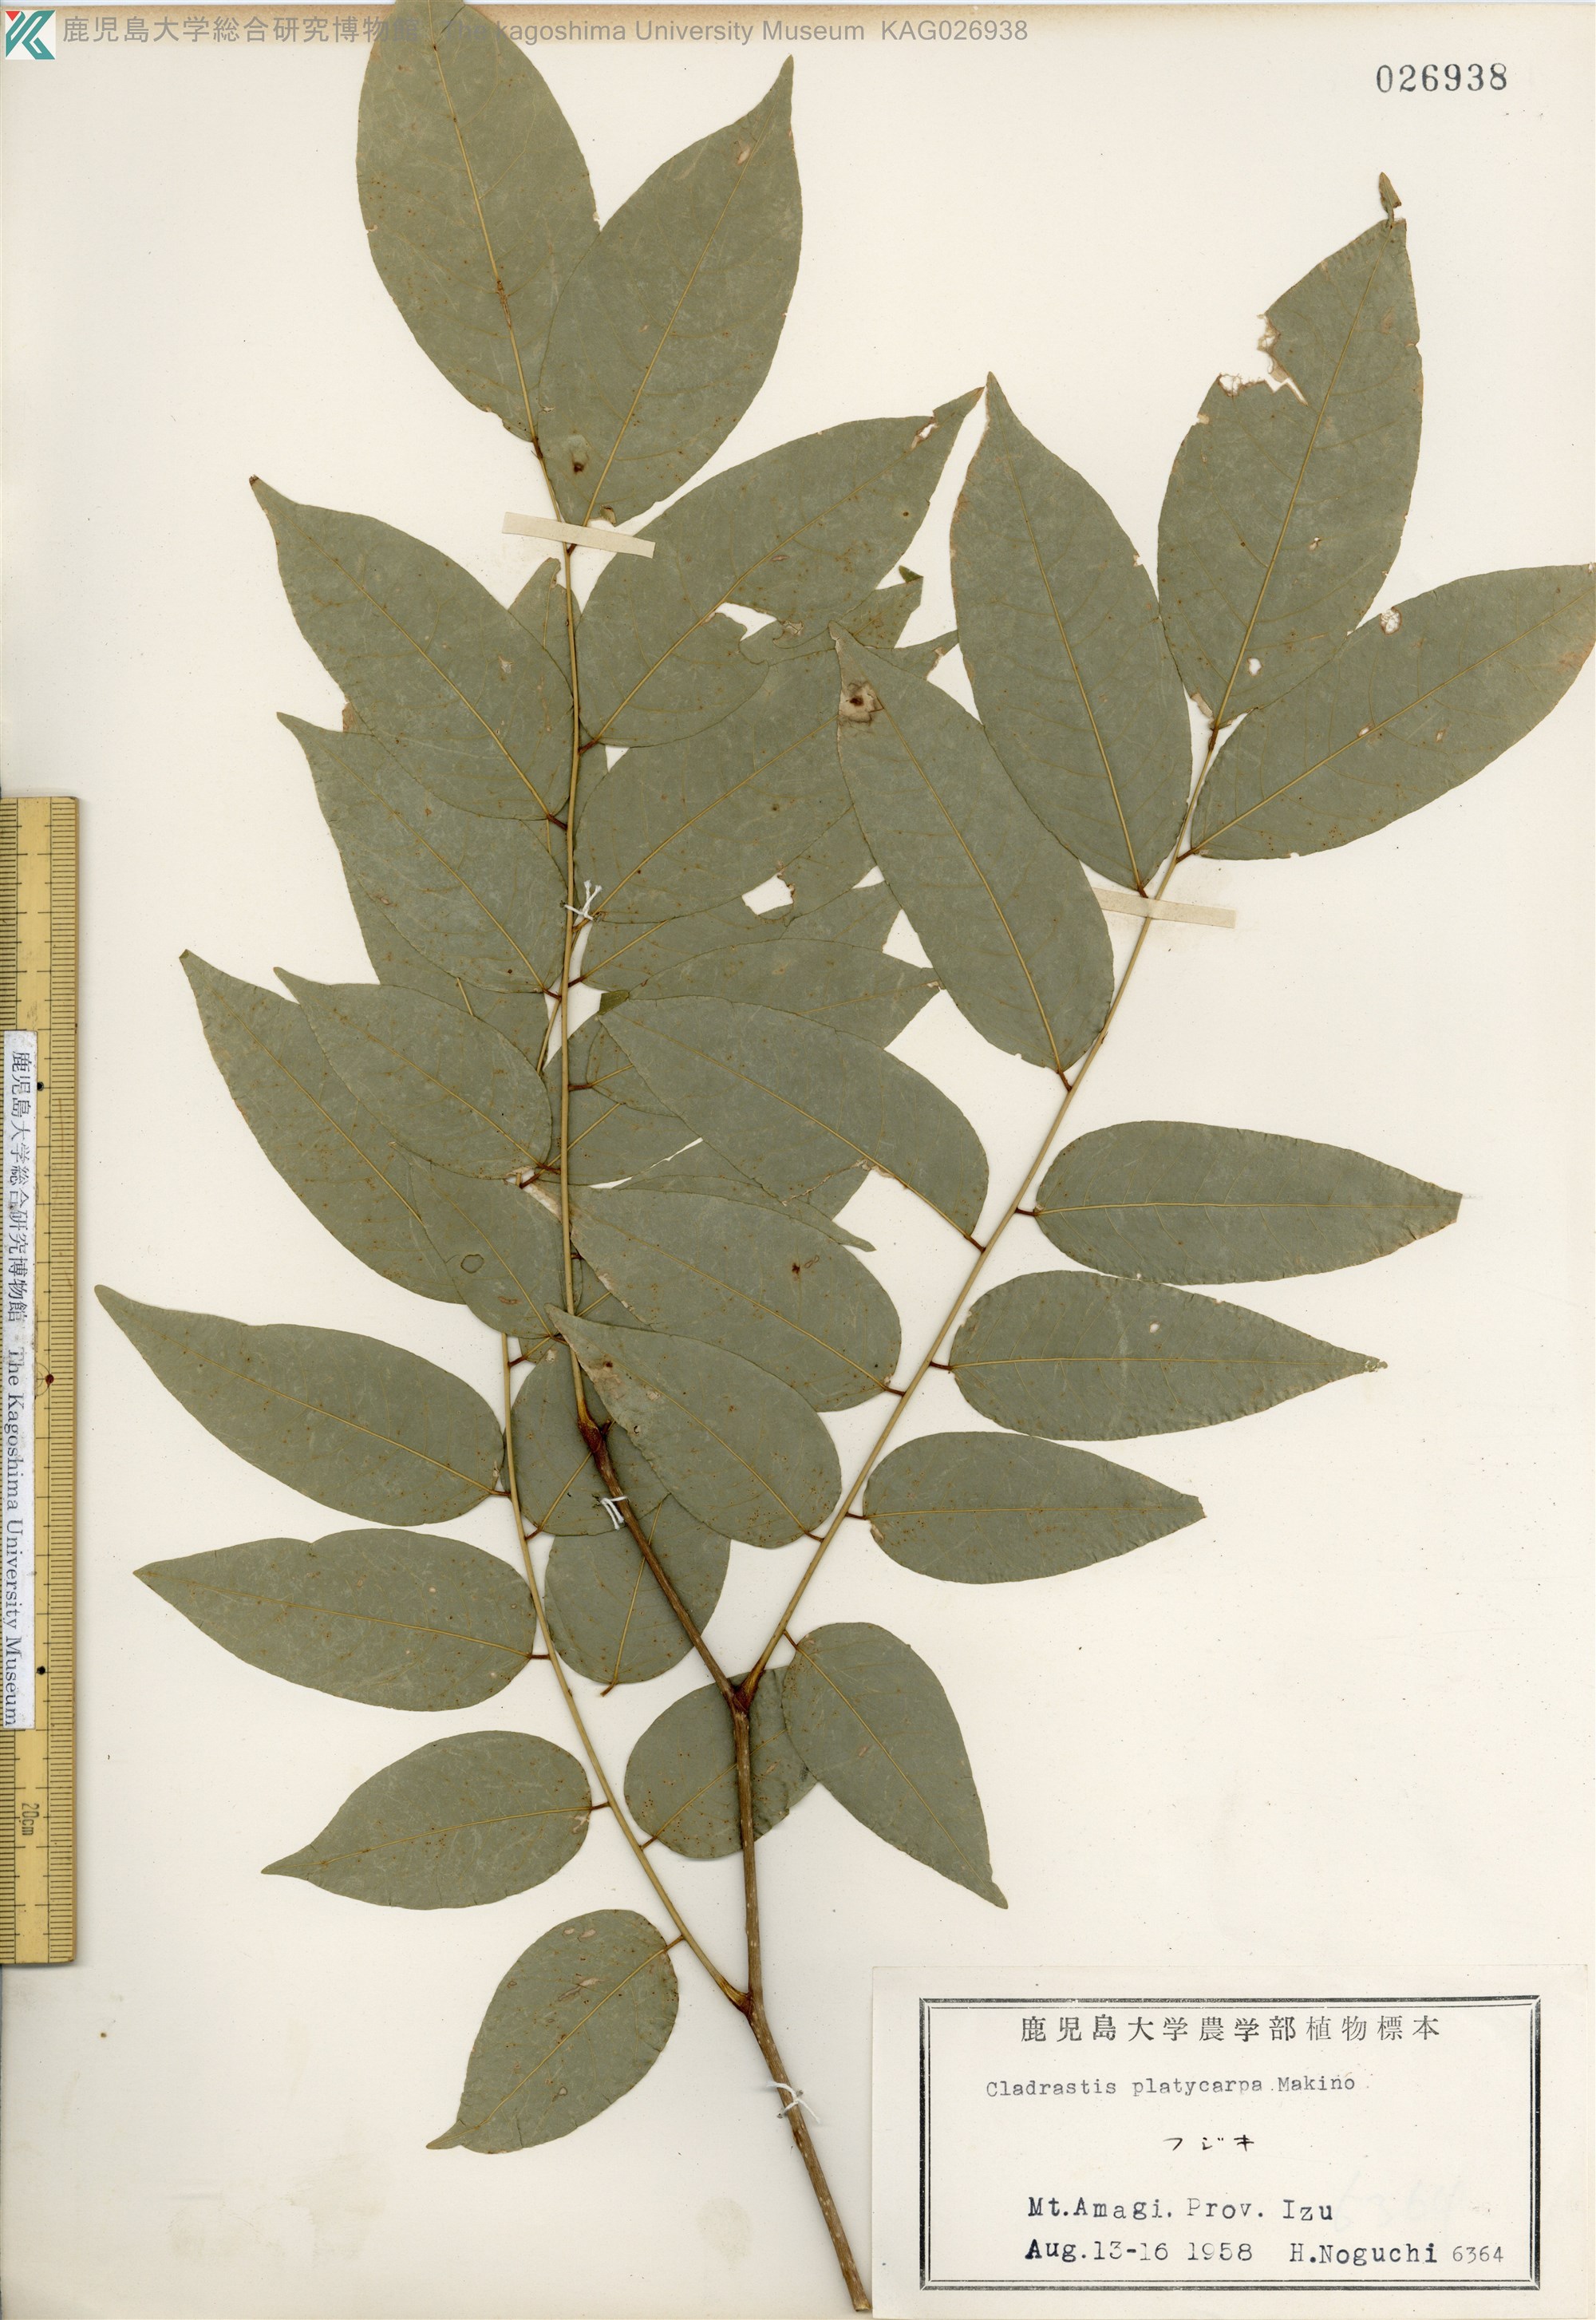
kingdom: Plantae
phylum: Tracheophyta
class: Magnoliopsida
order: Fabales
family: Fabaceae
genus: Platyosprion
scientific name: Platyosprion platycarpum
